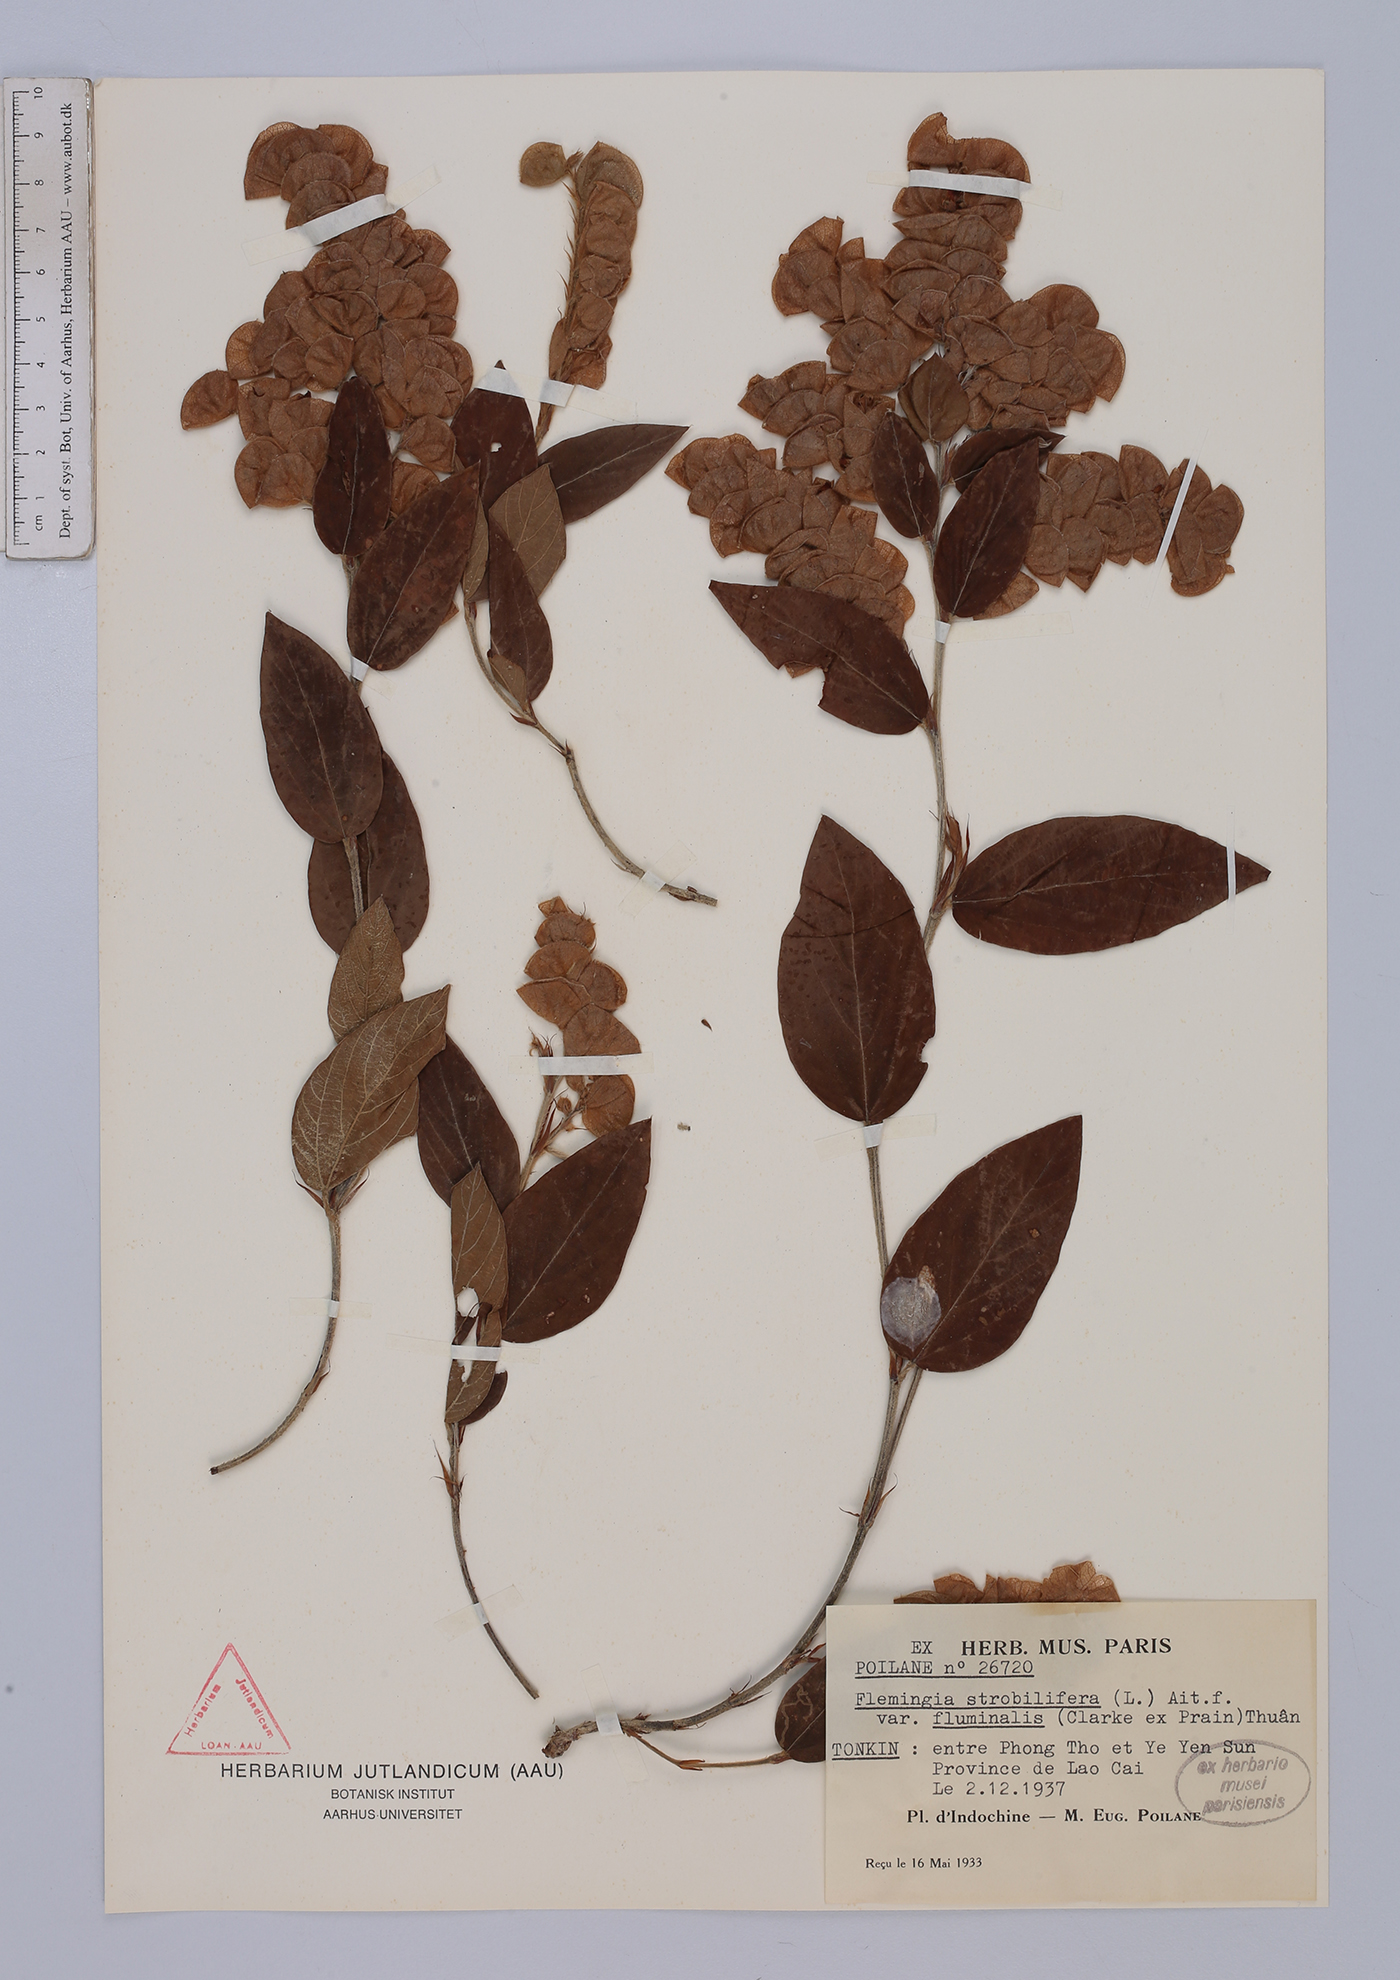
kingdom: Plantae
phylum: Tracheophyta
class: Magnoliopsida
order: Fabales
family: Fabaceae
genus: Flemingia
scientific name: Flemingia fluminalis
